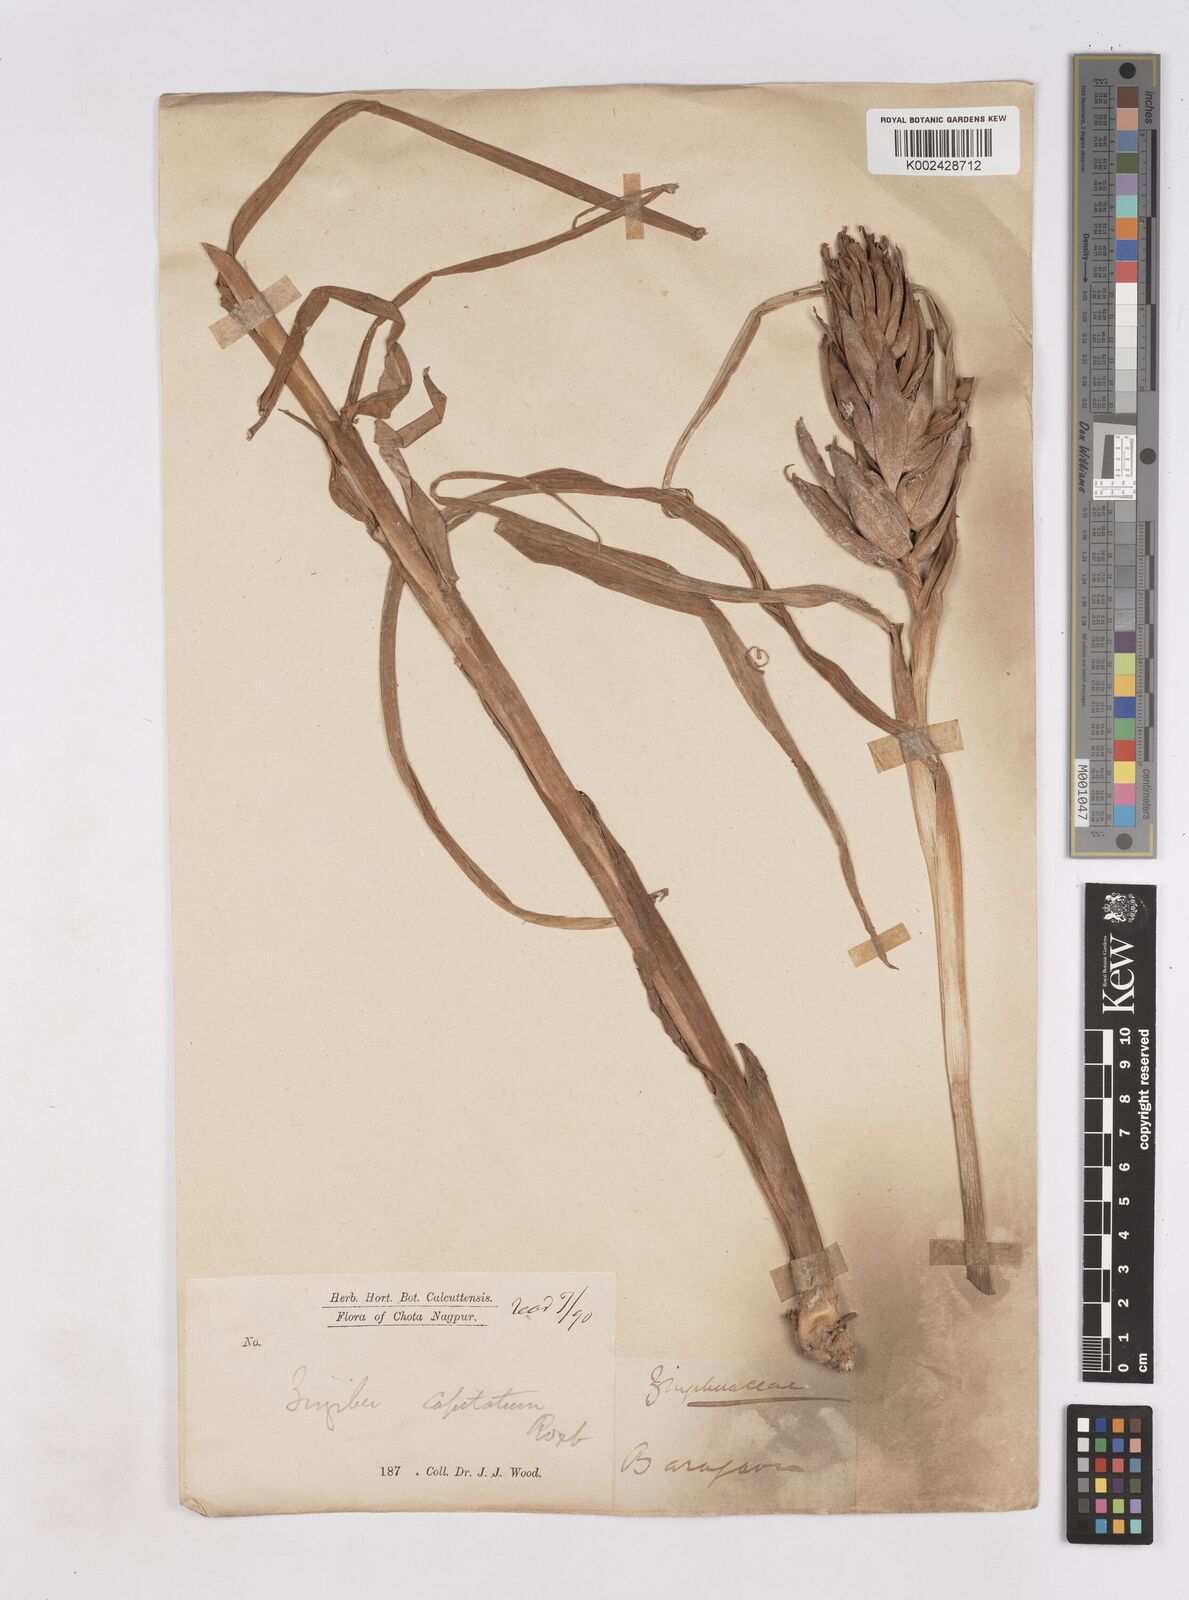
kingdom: Plantae
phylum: Tracheophyta
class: Liliopsida
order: Zingiberales
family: Zingiberaceae
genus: Zingiber
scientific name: Zingiber capitatum
